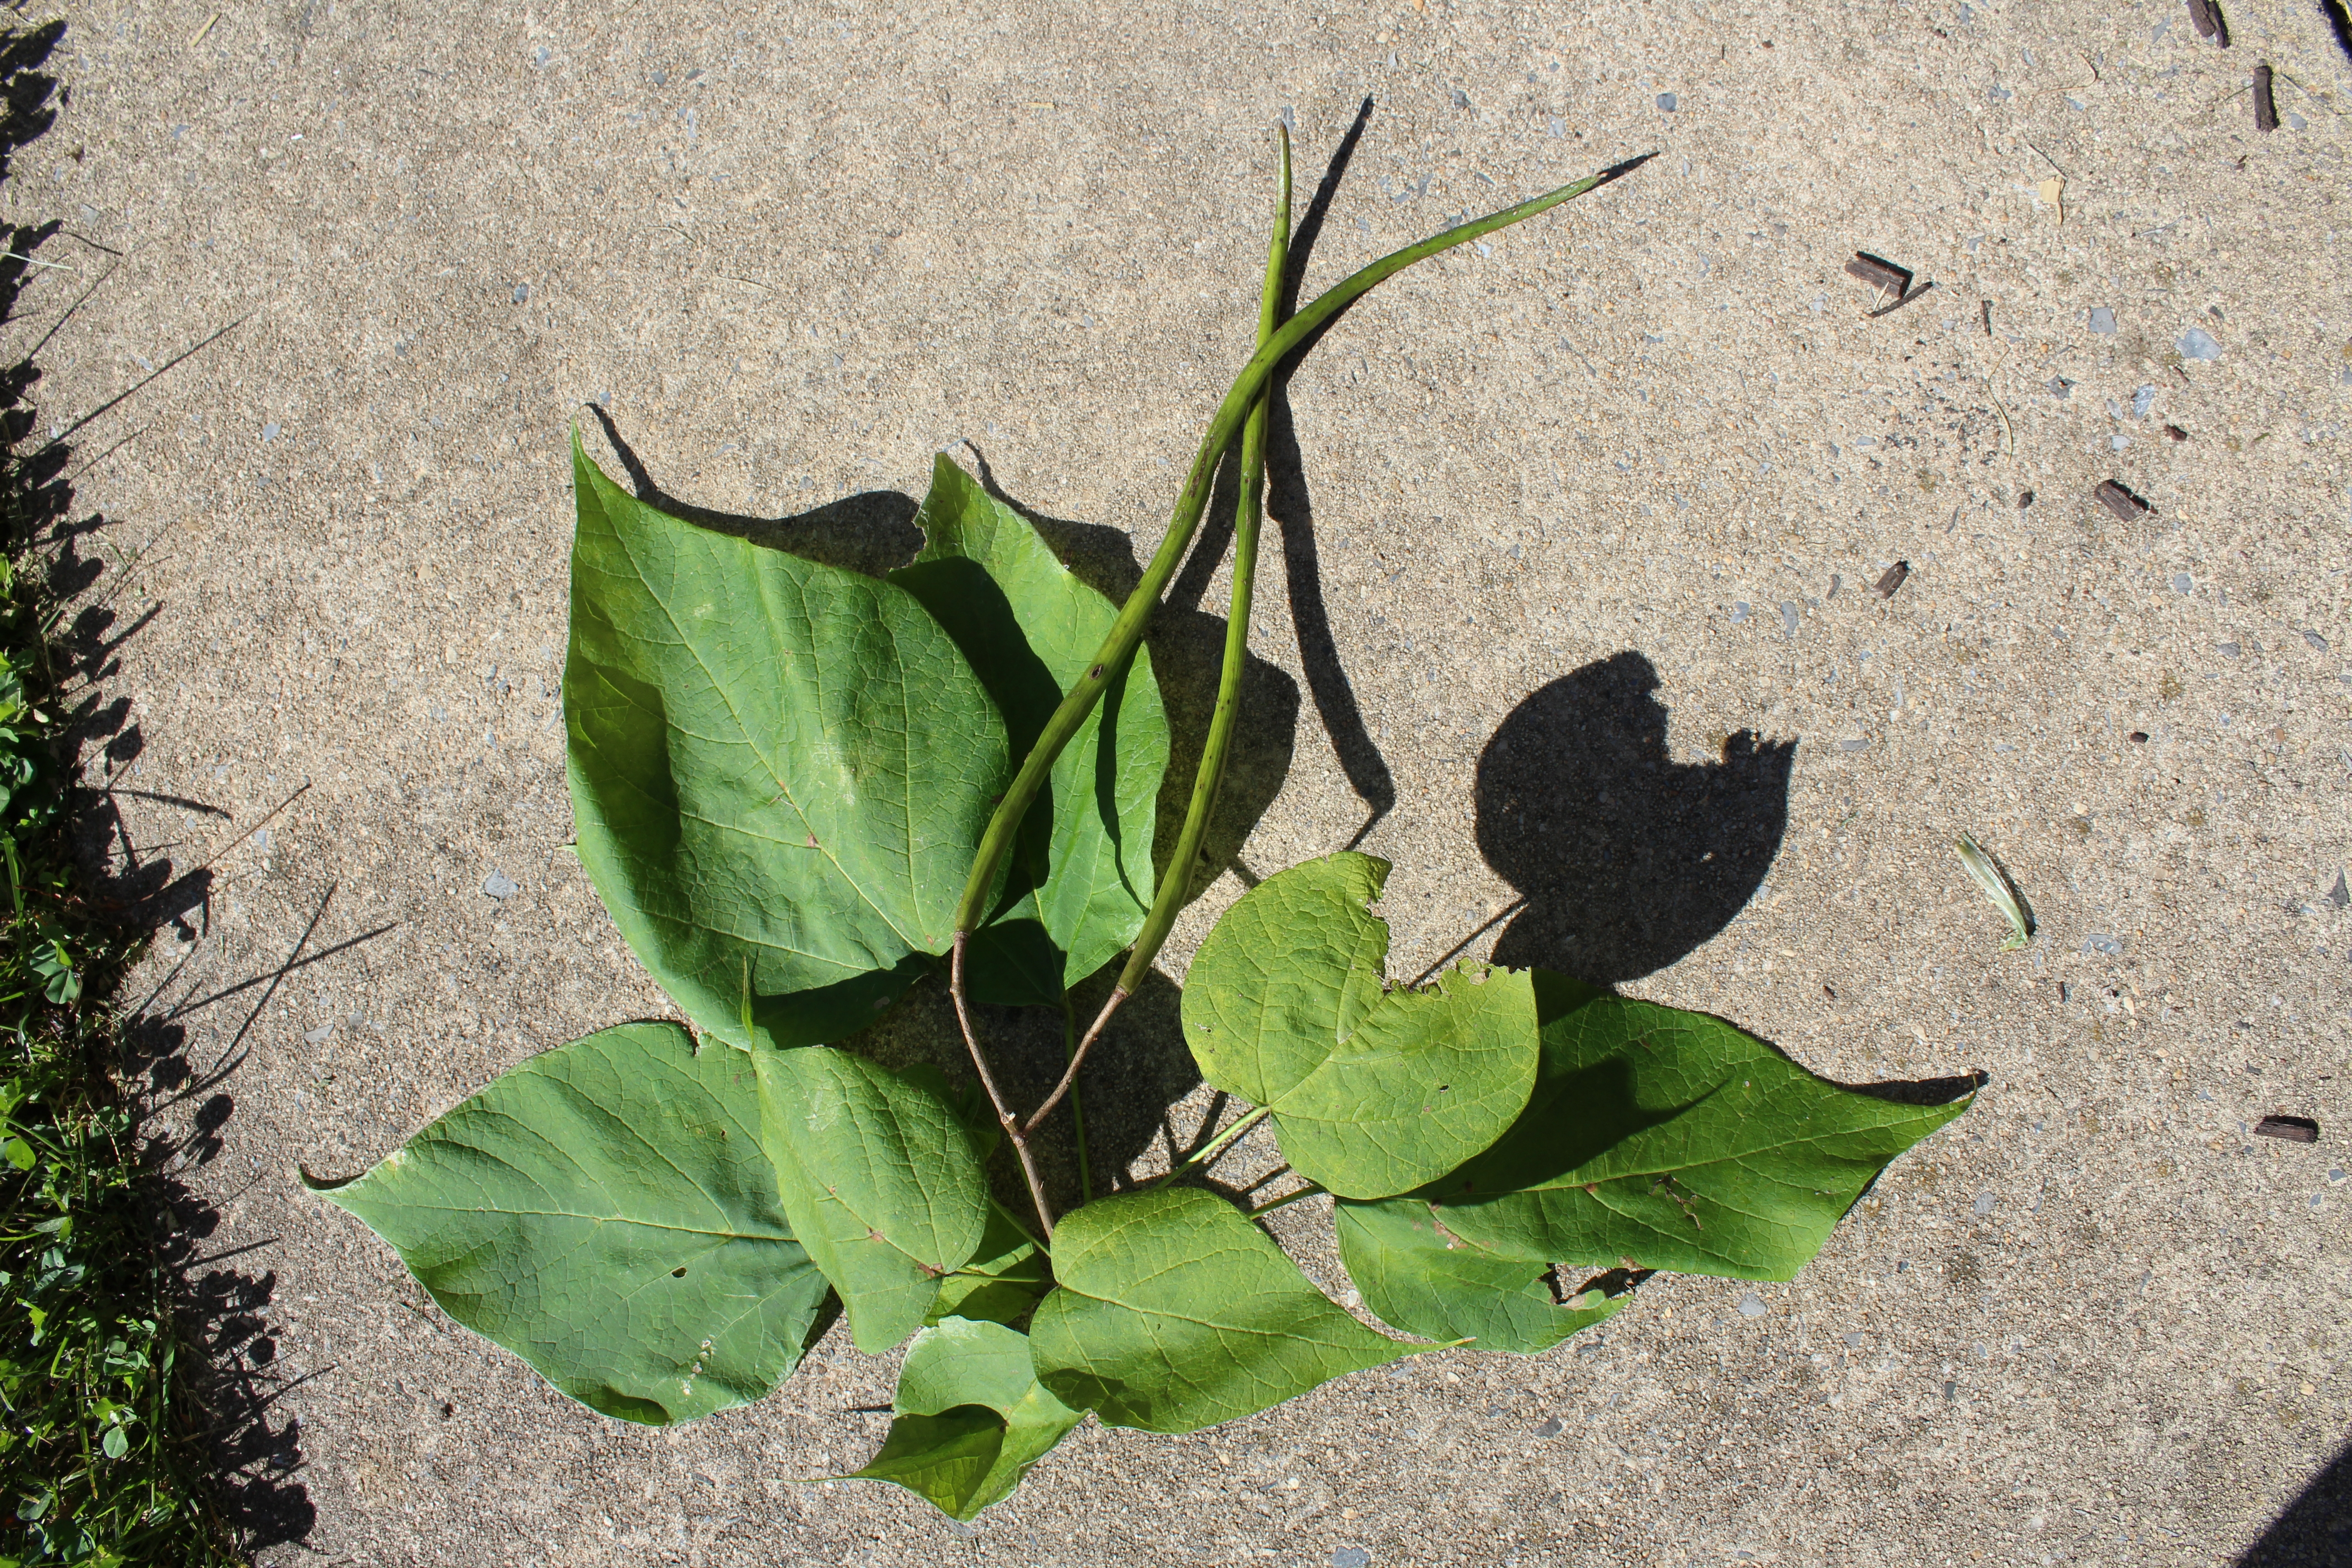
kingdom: Plantae
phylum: Tracheophyta
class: Magnoliopsida
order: Lamiales
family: Bignoniaceae
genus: Catalpa
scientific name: Catalpa speciosa
